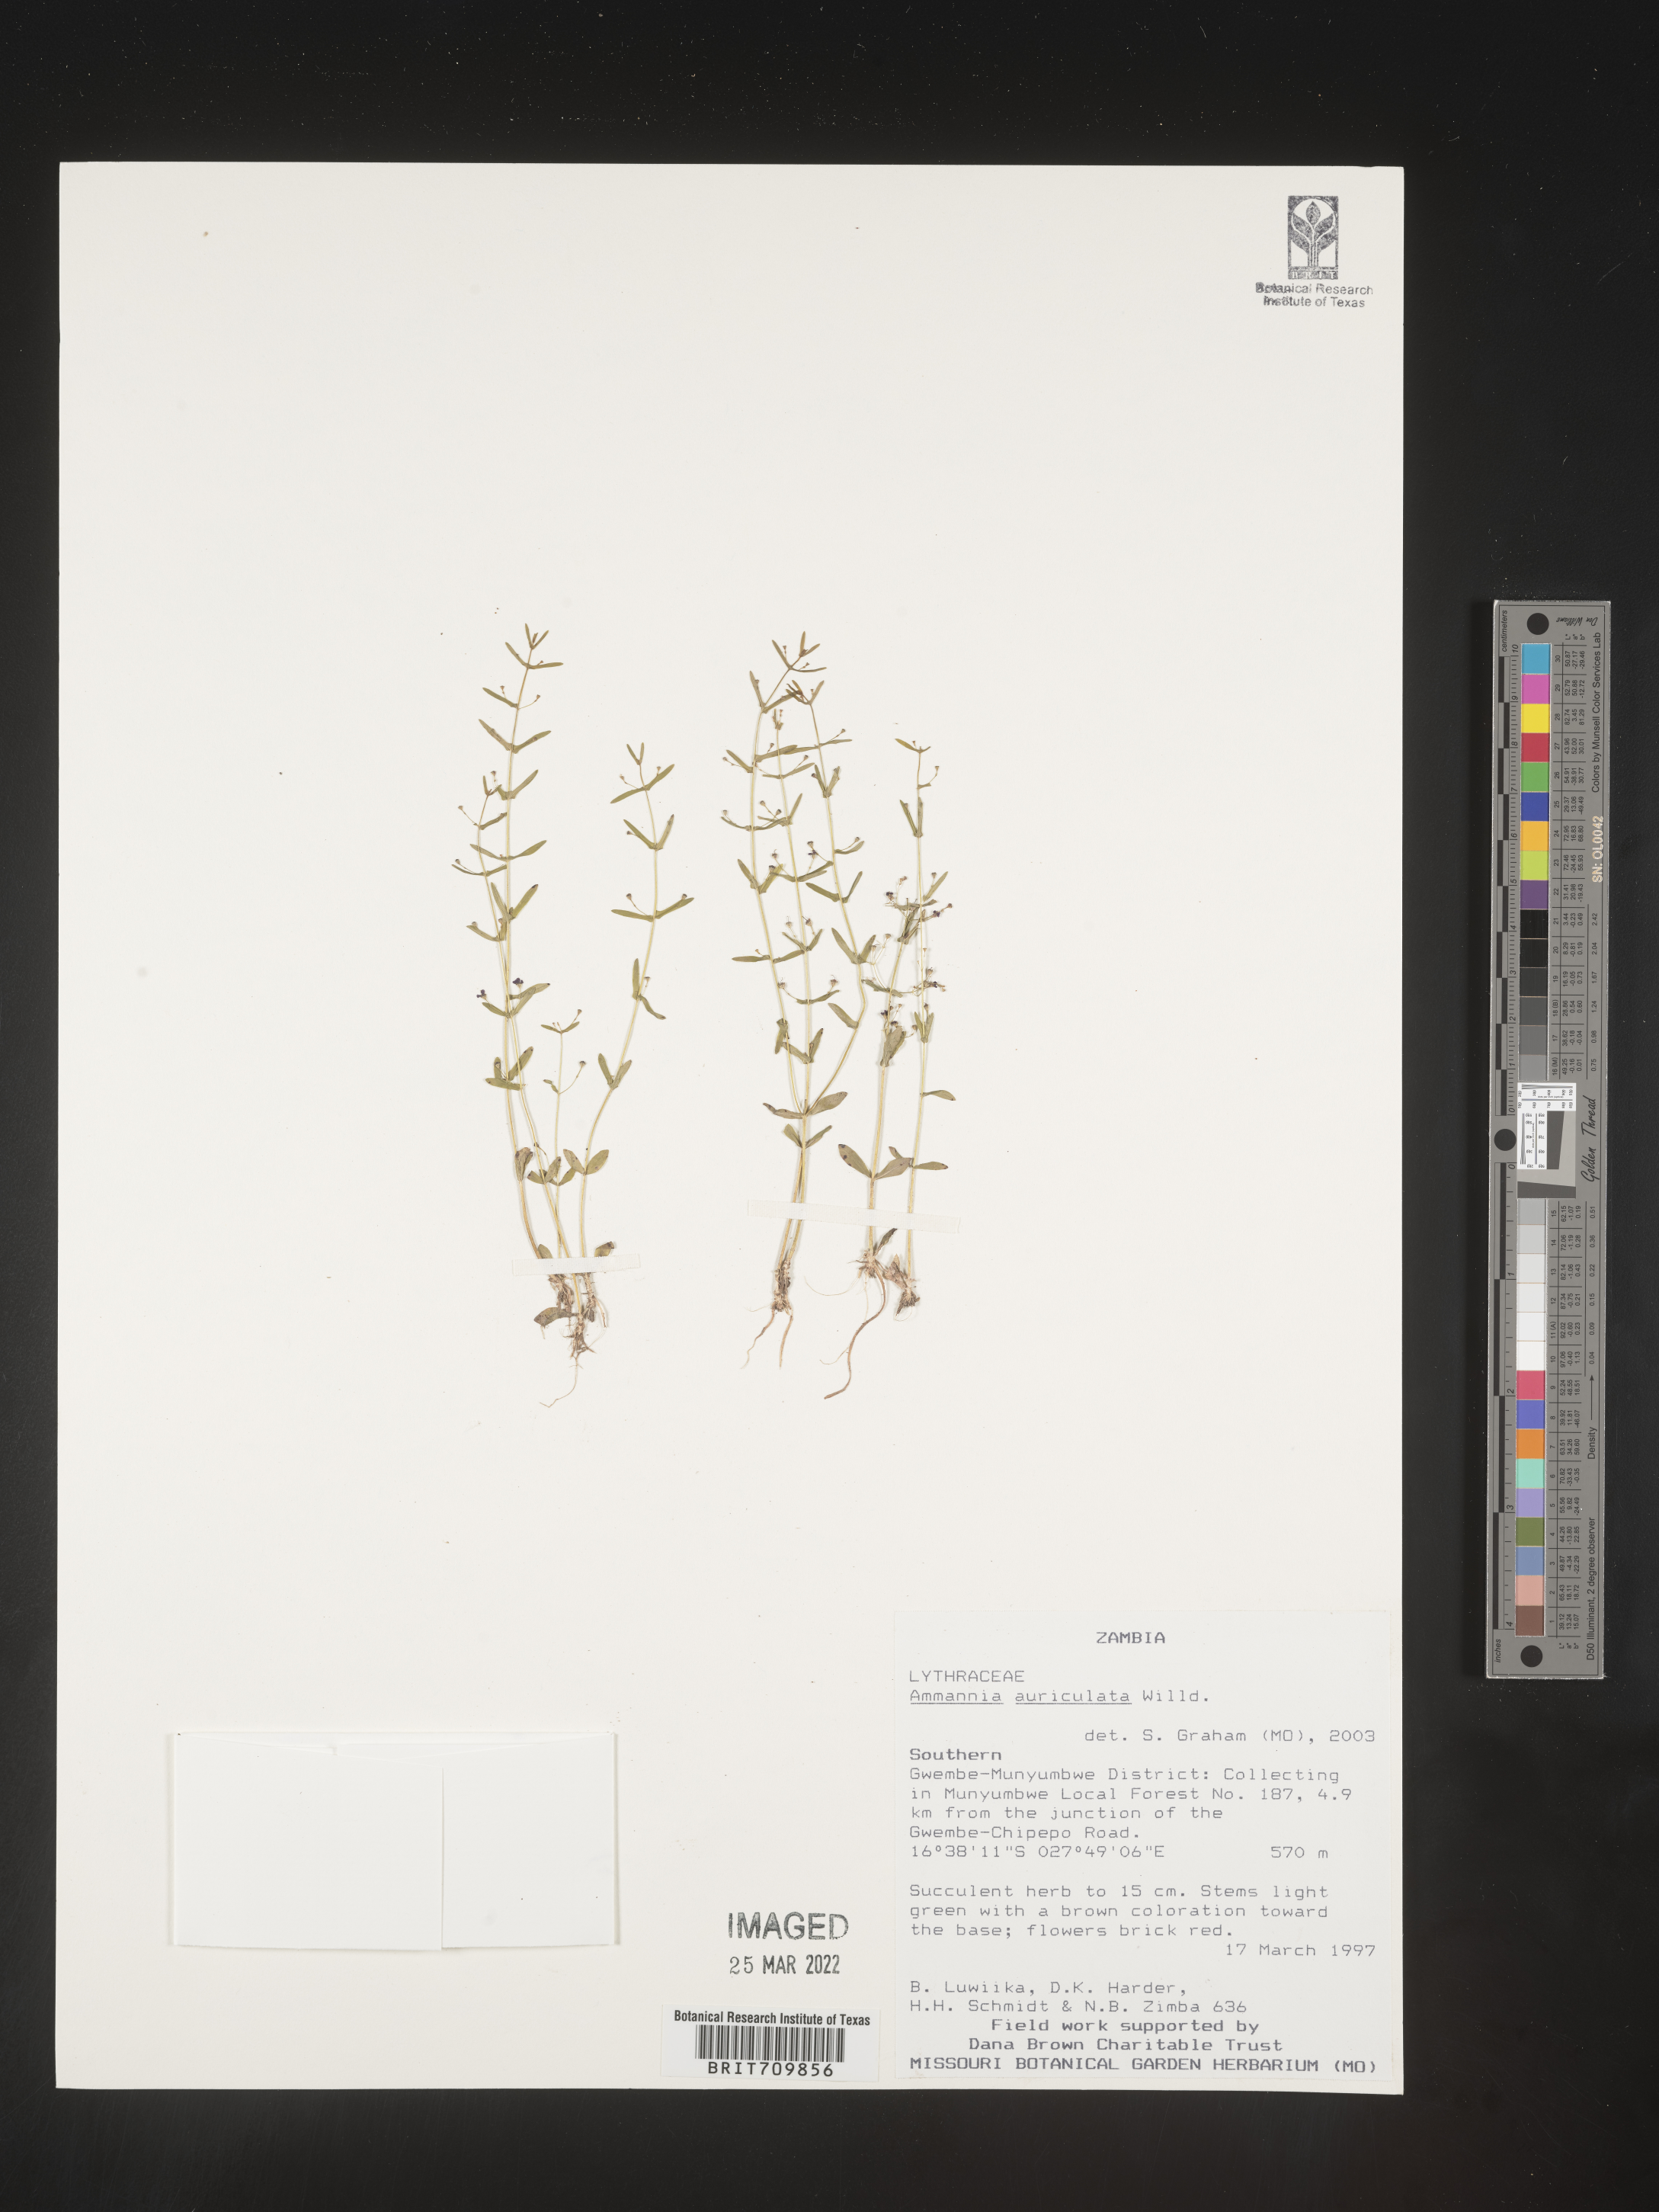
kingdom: Plantae
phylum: Tracheophyta
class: Magnoliopsida
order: Myrtales
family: Lythraceae
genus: Ammannia
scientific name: Ammannia
